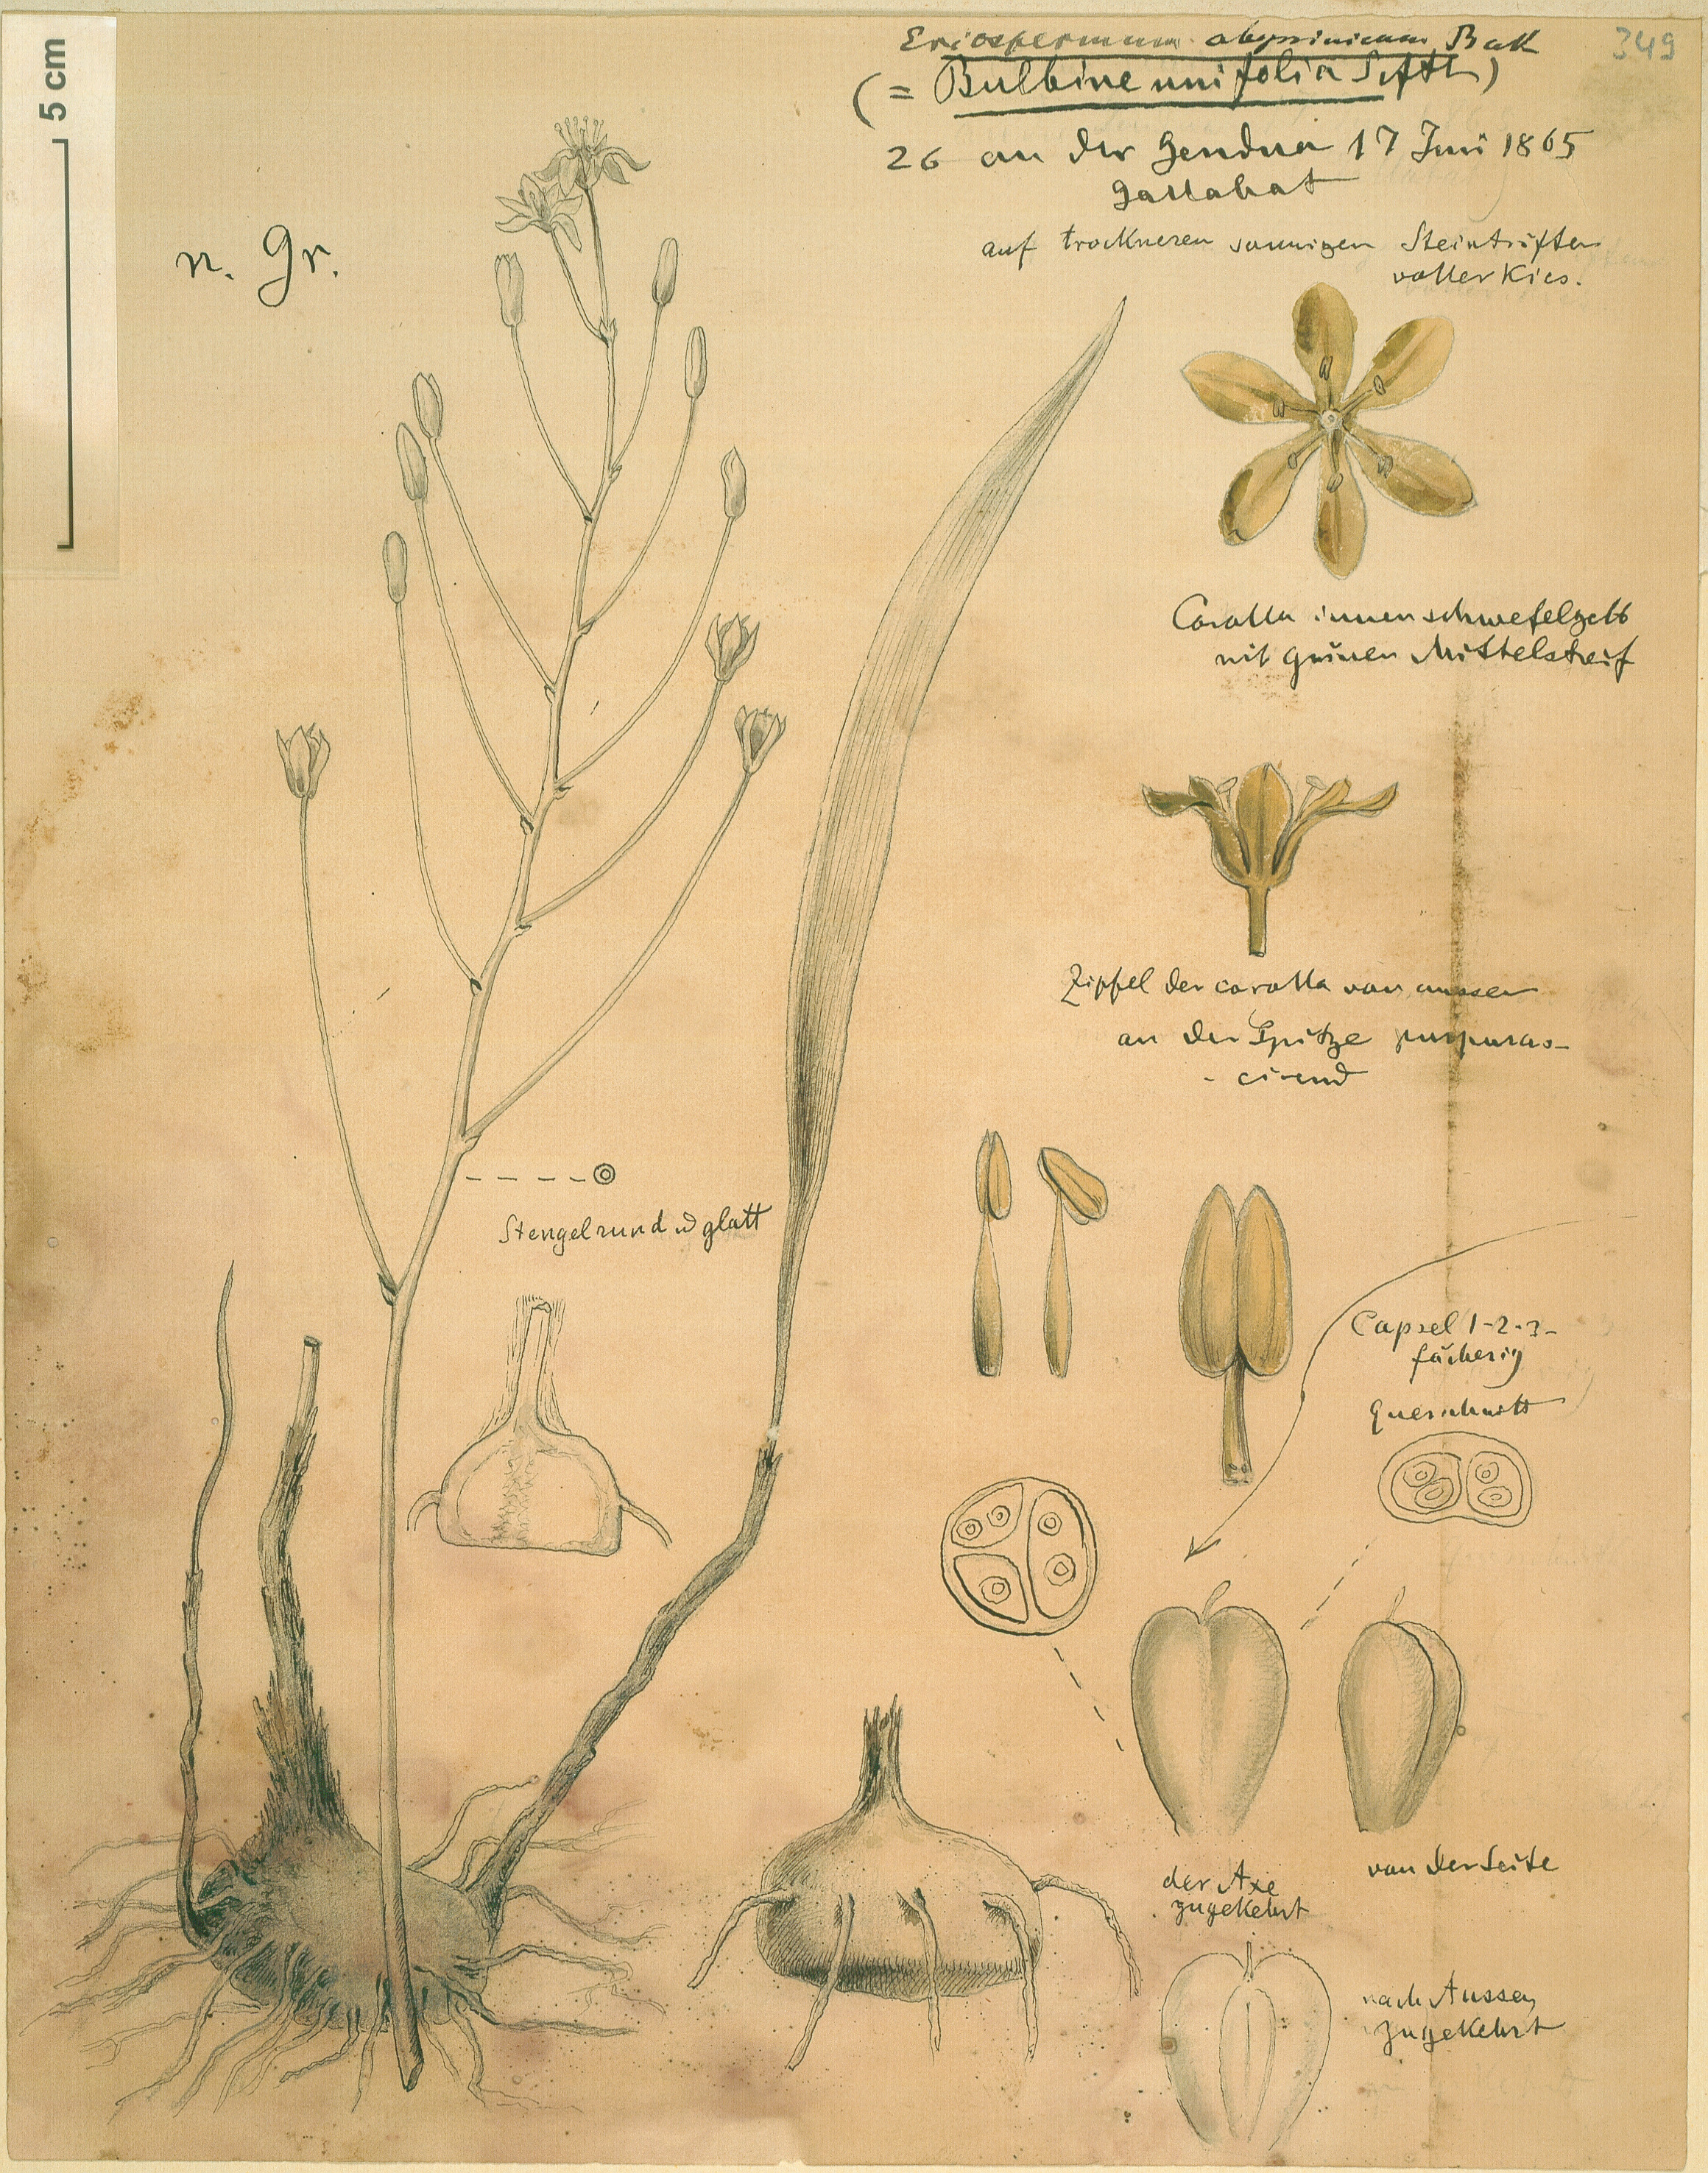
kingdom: Plantae
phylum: Tracheophyta
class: Liliopsida
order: Asparagales
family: Asparagaceae
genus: Eriospermum
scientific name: Eriospermum abyssinicum
